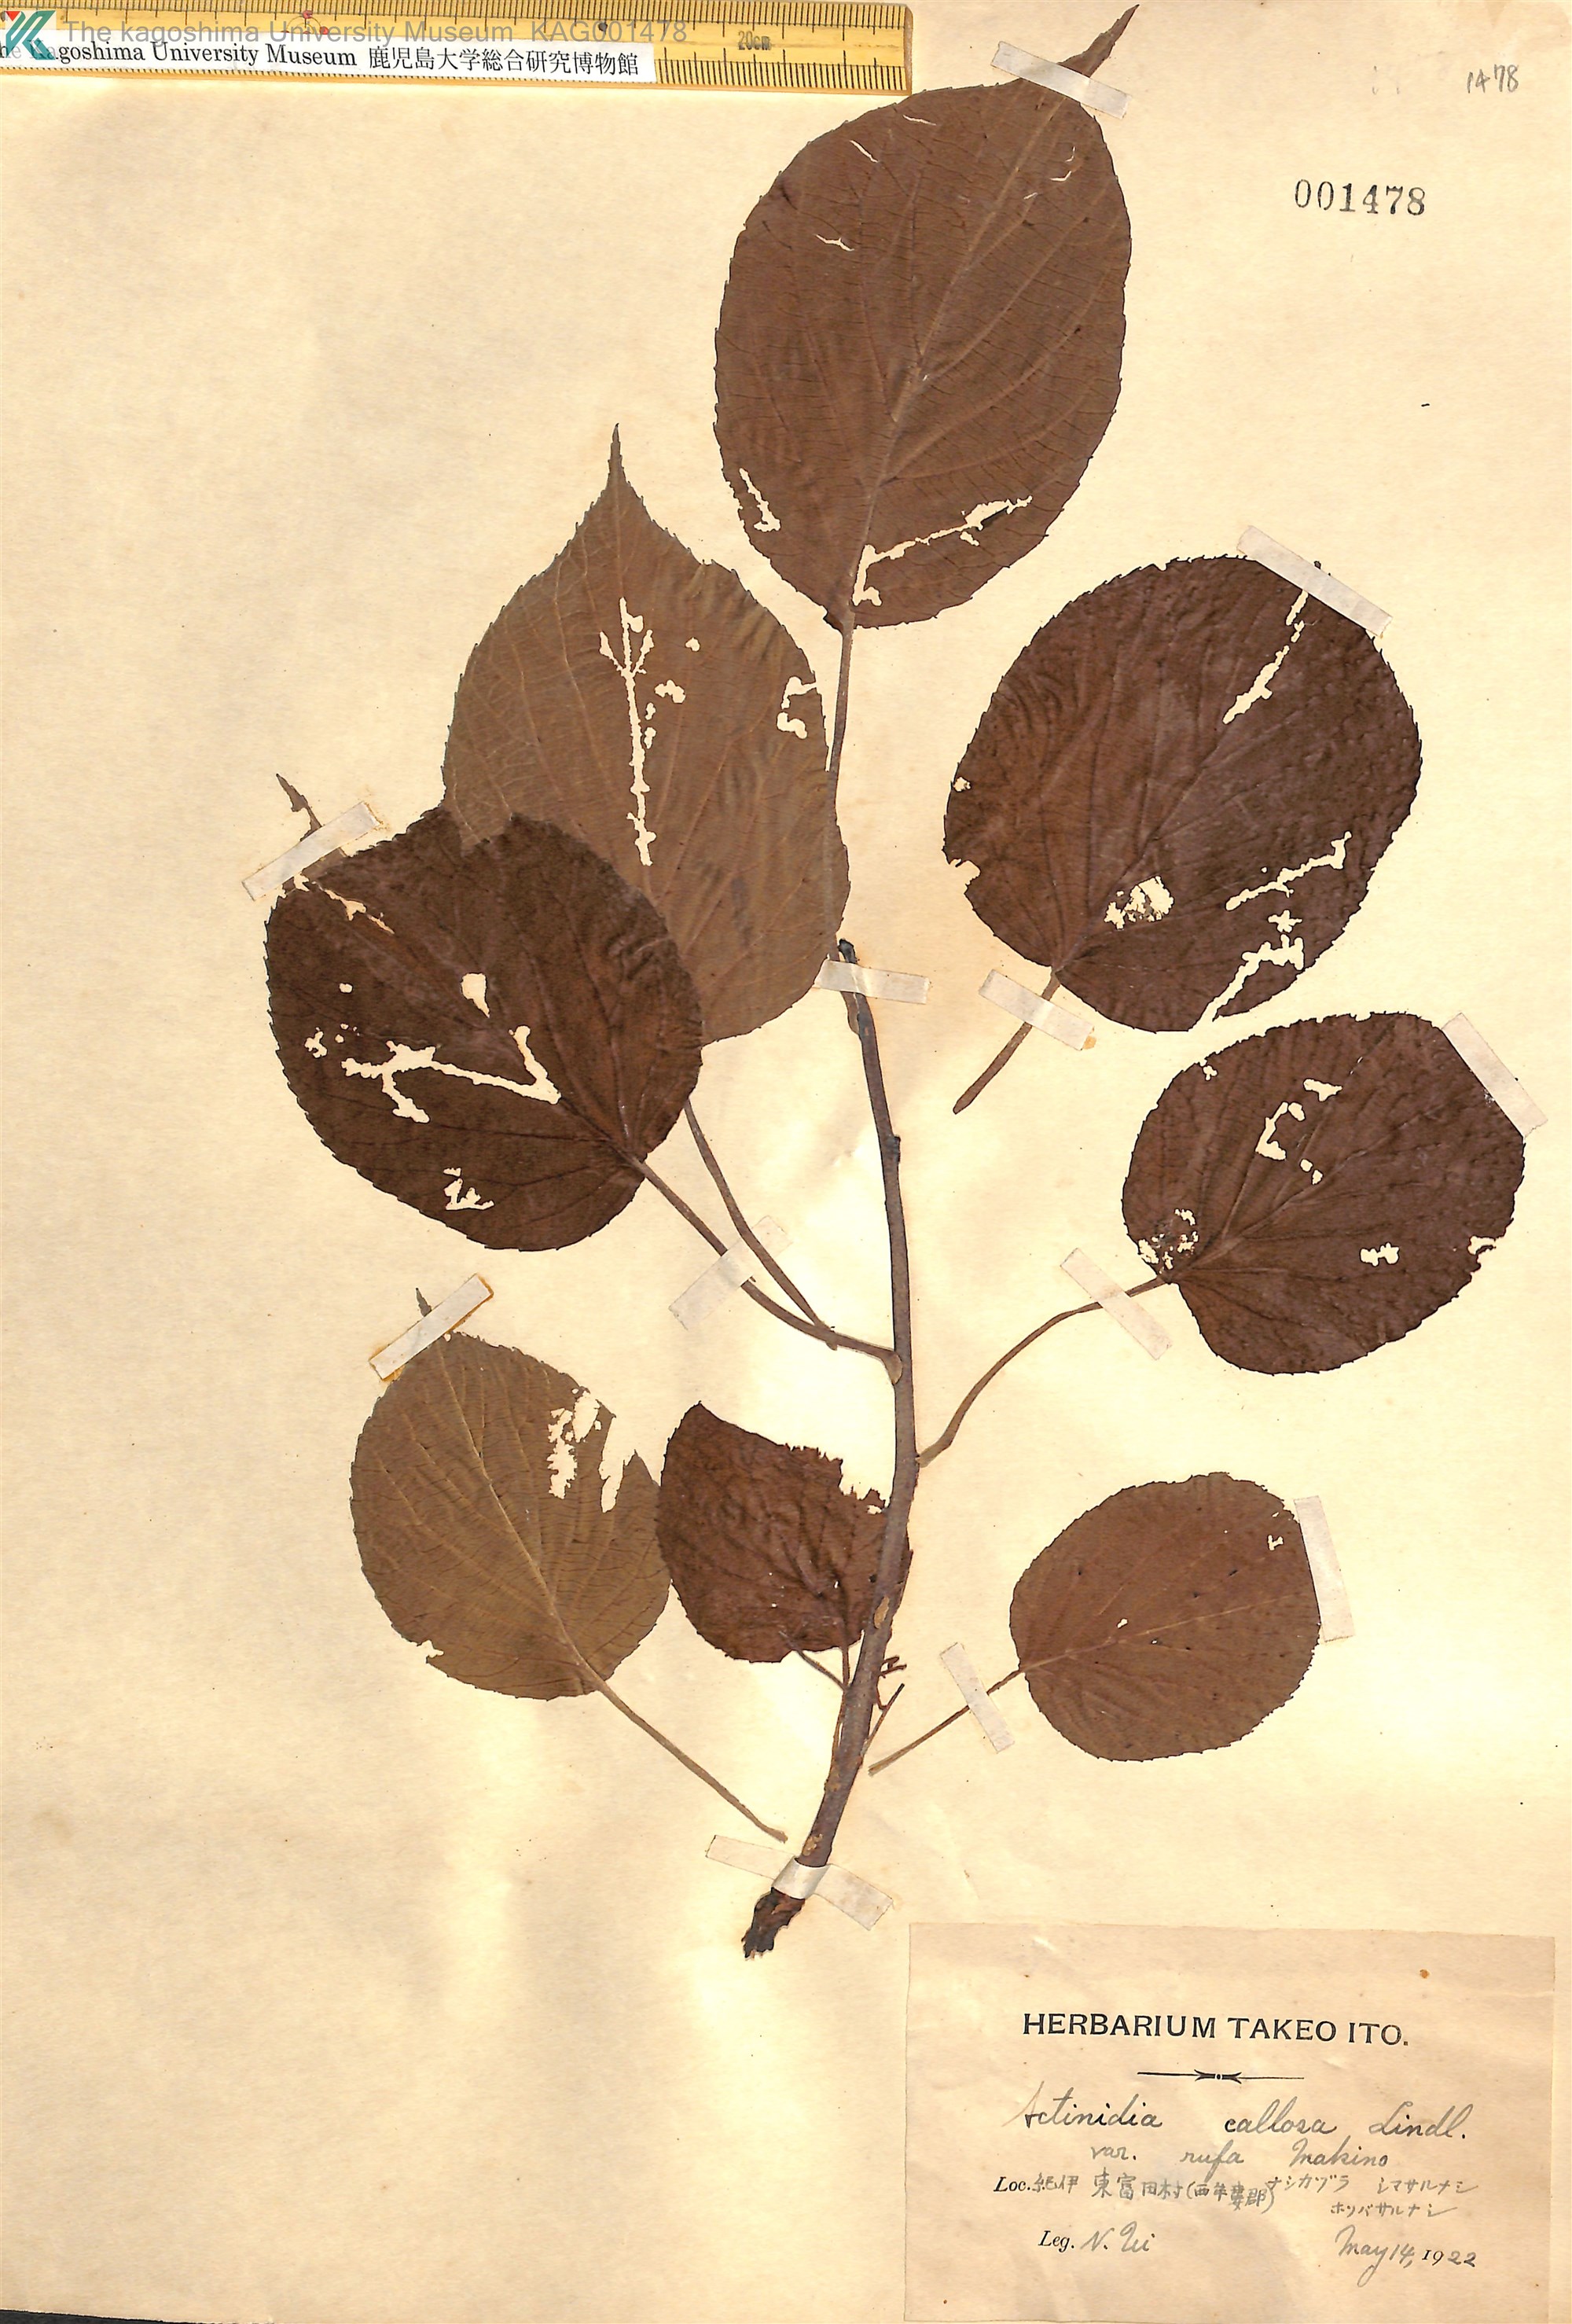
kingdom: Plantae
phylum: Tracheophyta
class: Magnoliopsida
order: Ericales
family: Actinidiaceae
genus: Actinidia
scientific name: Actinidia rufa
